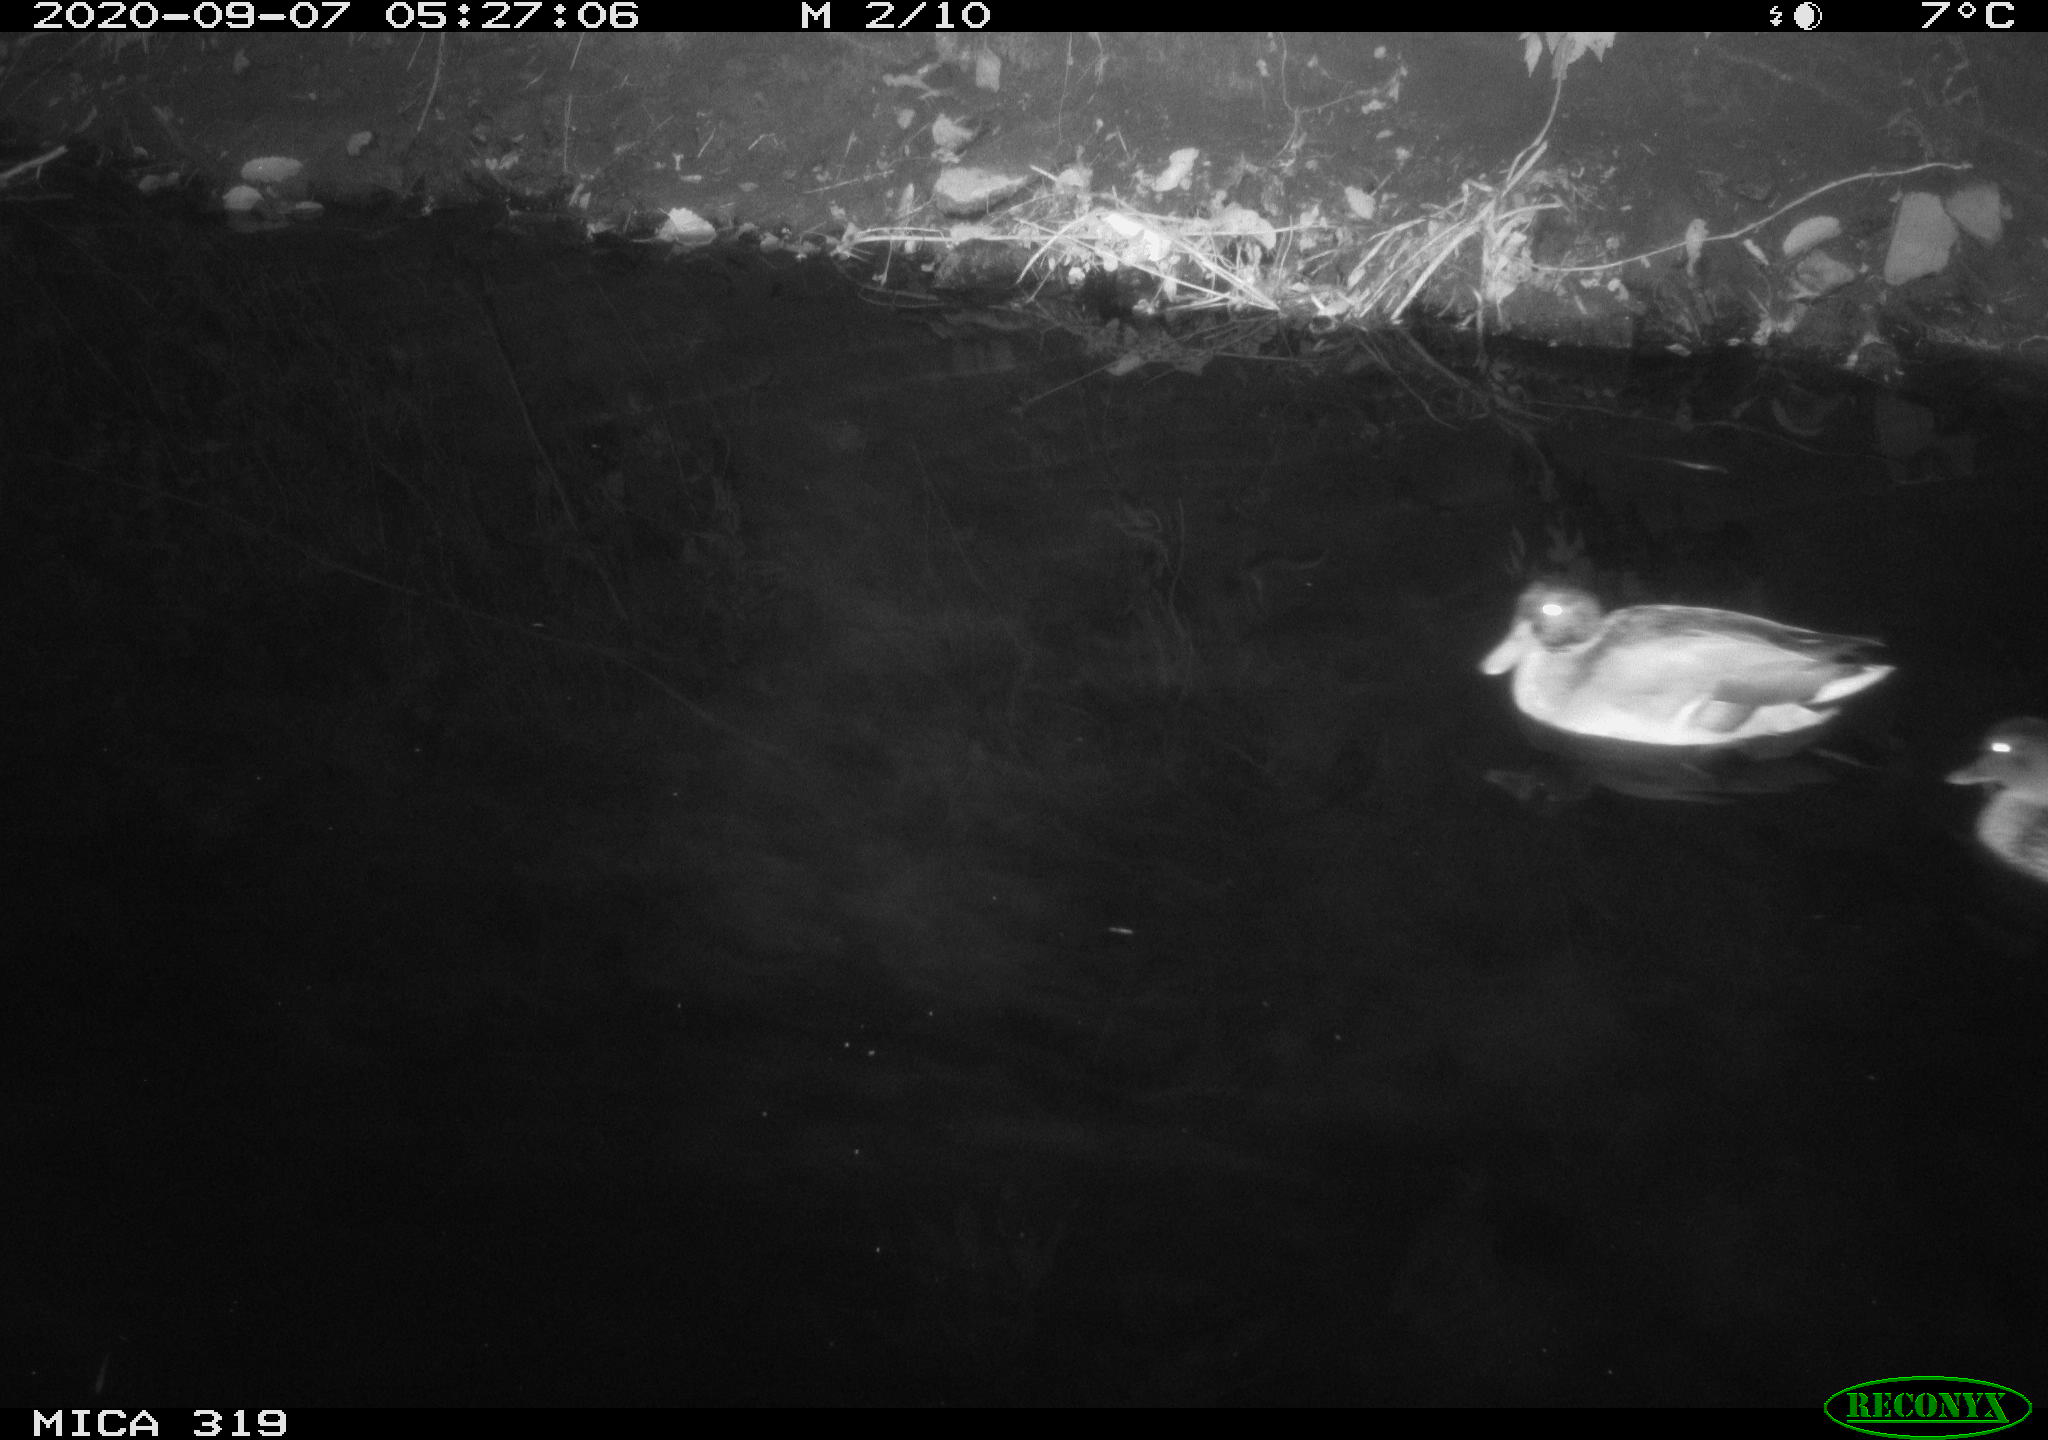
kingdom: Animalia
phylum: Chordata
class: Aves
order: Anseriformes
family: Anatidae
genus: Anas
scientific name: Anas platyrhynchos
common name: Mallard
